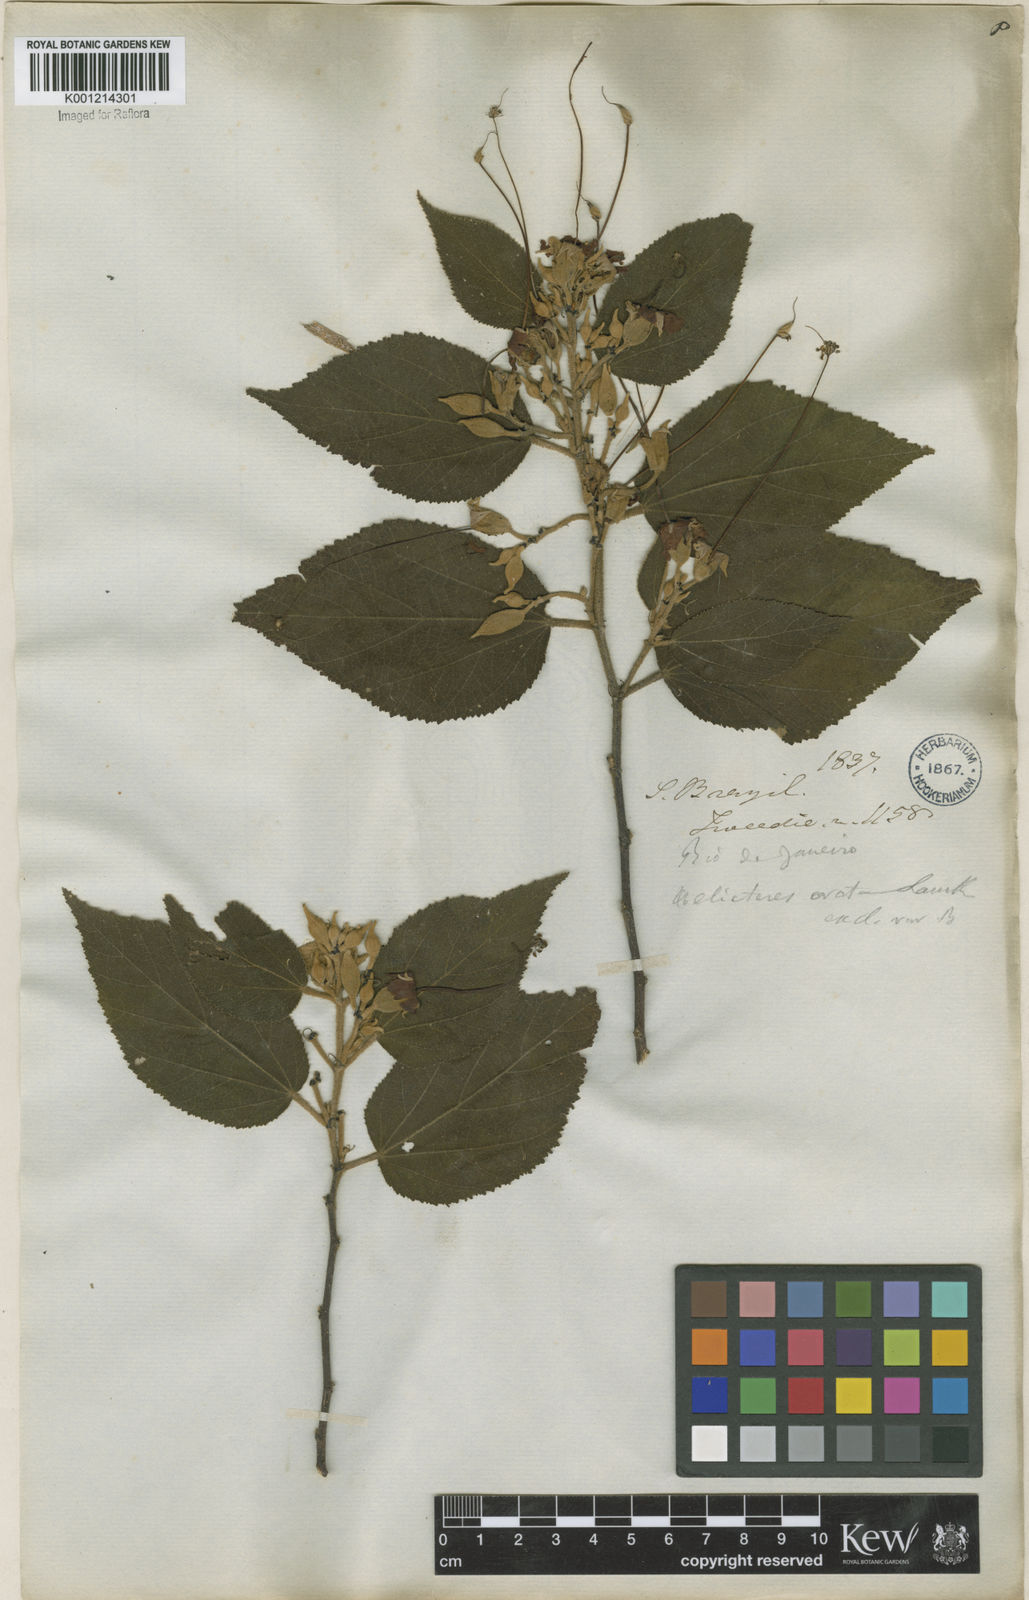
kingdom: Plantae
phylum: Tracheophyta
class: Magnoliopsida
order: Malvales
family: Malvaceae
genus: Helicteres
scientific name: Helicteres ovata
